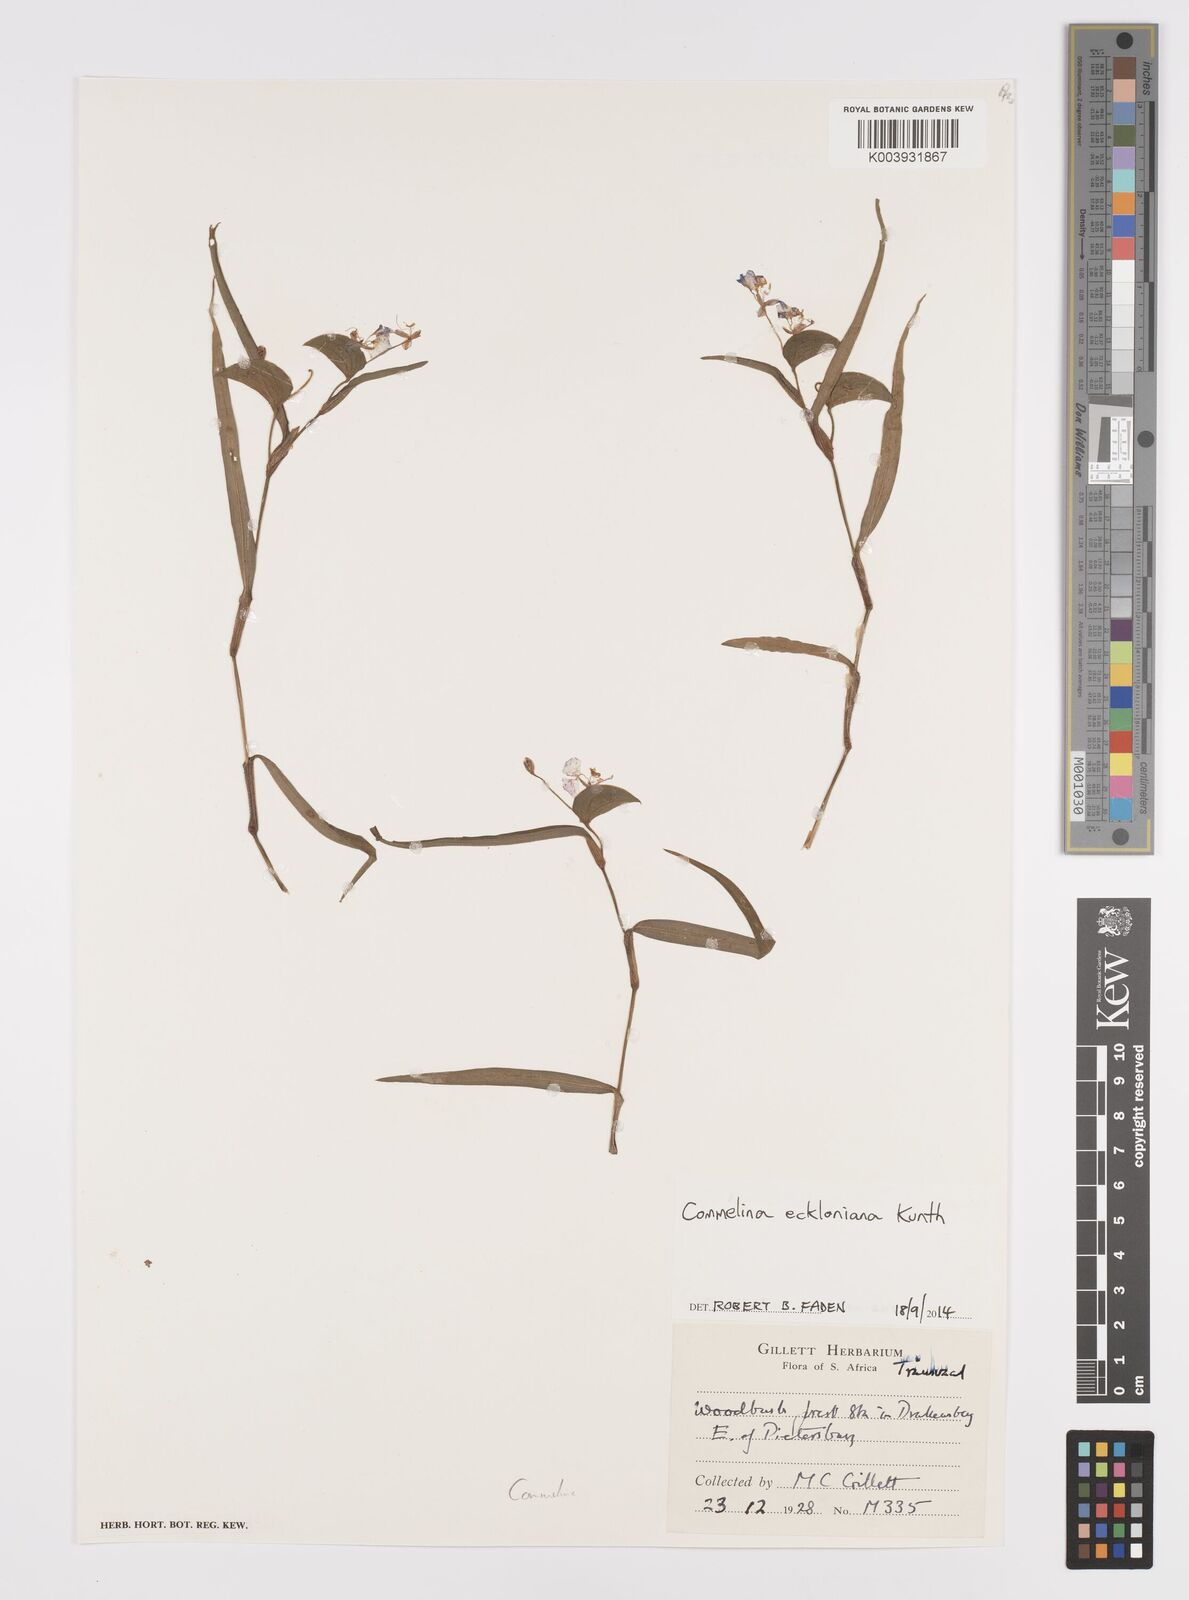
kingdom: Plantae
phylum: Tracheophyta
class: Liliopsida
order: Commelinales
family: Commelinaceae
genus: Commelina
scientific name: Commelina eckloniana
